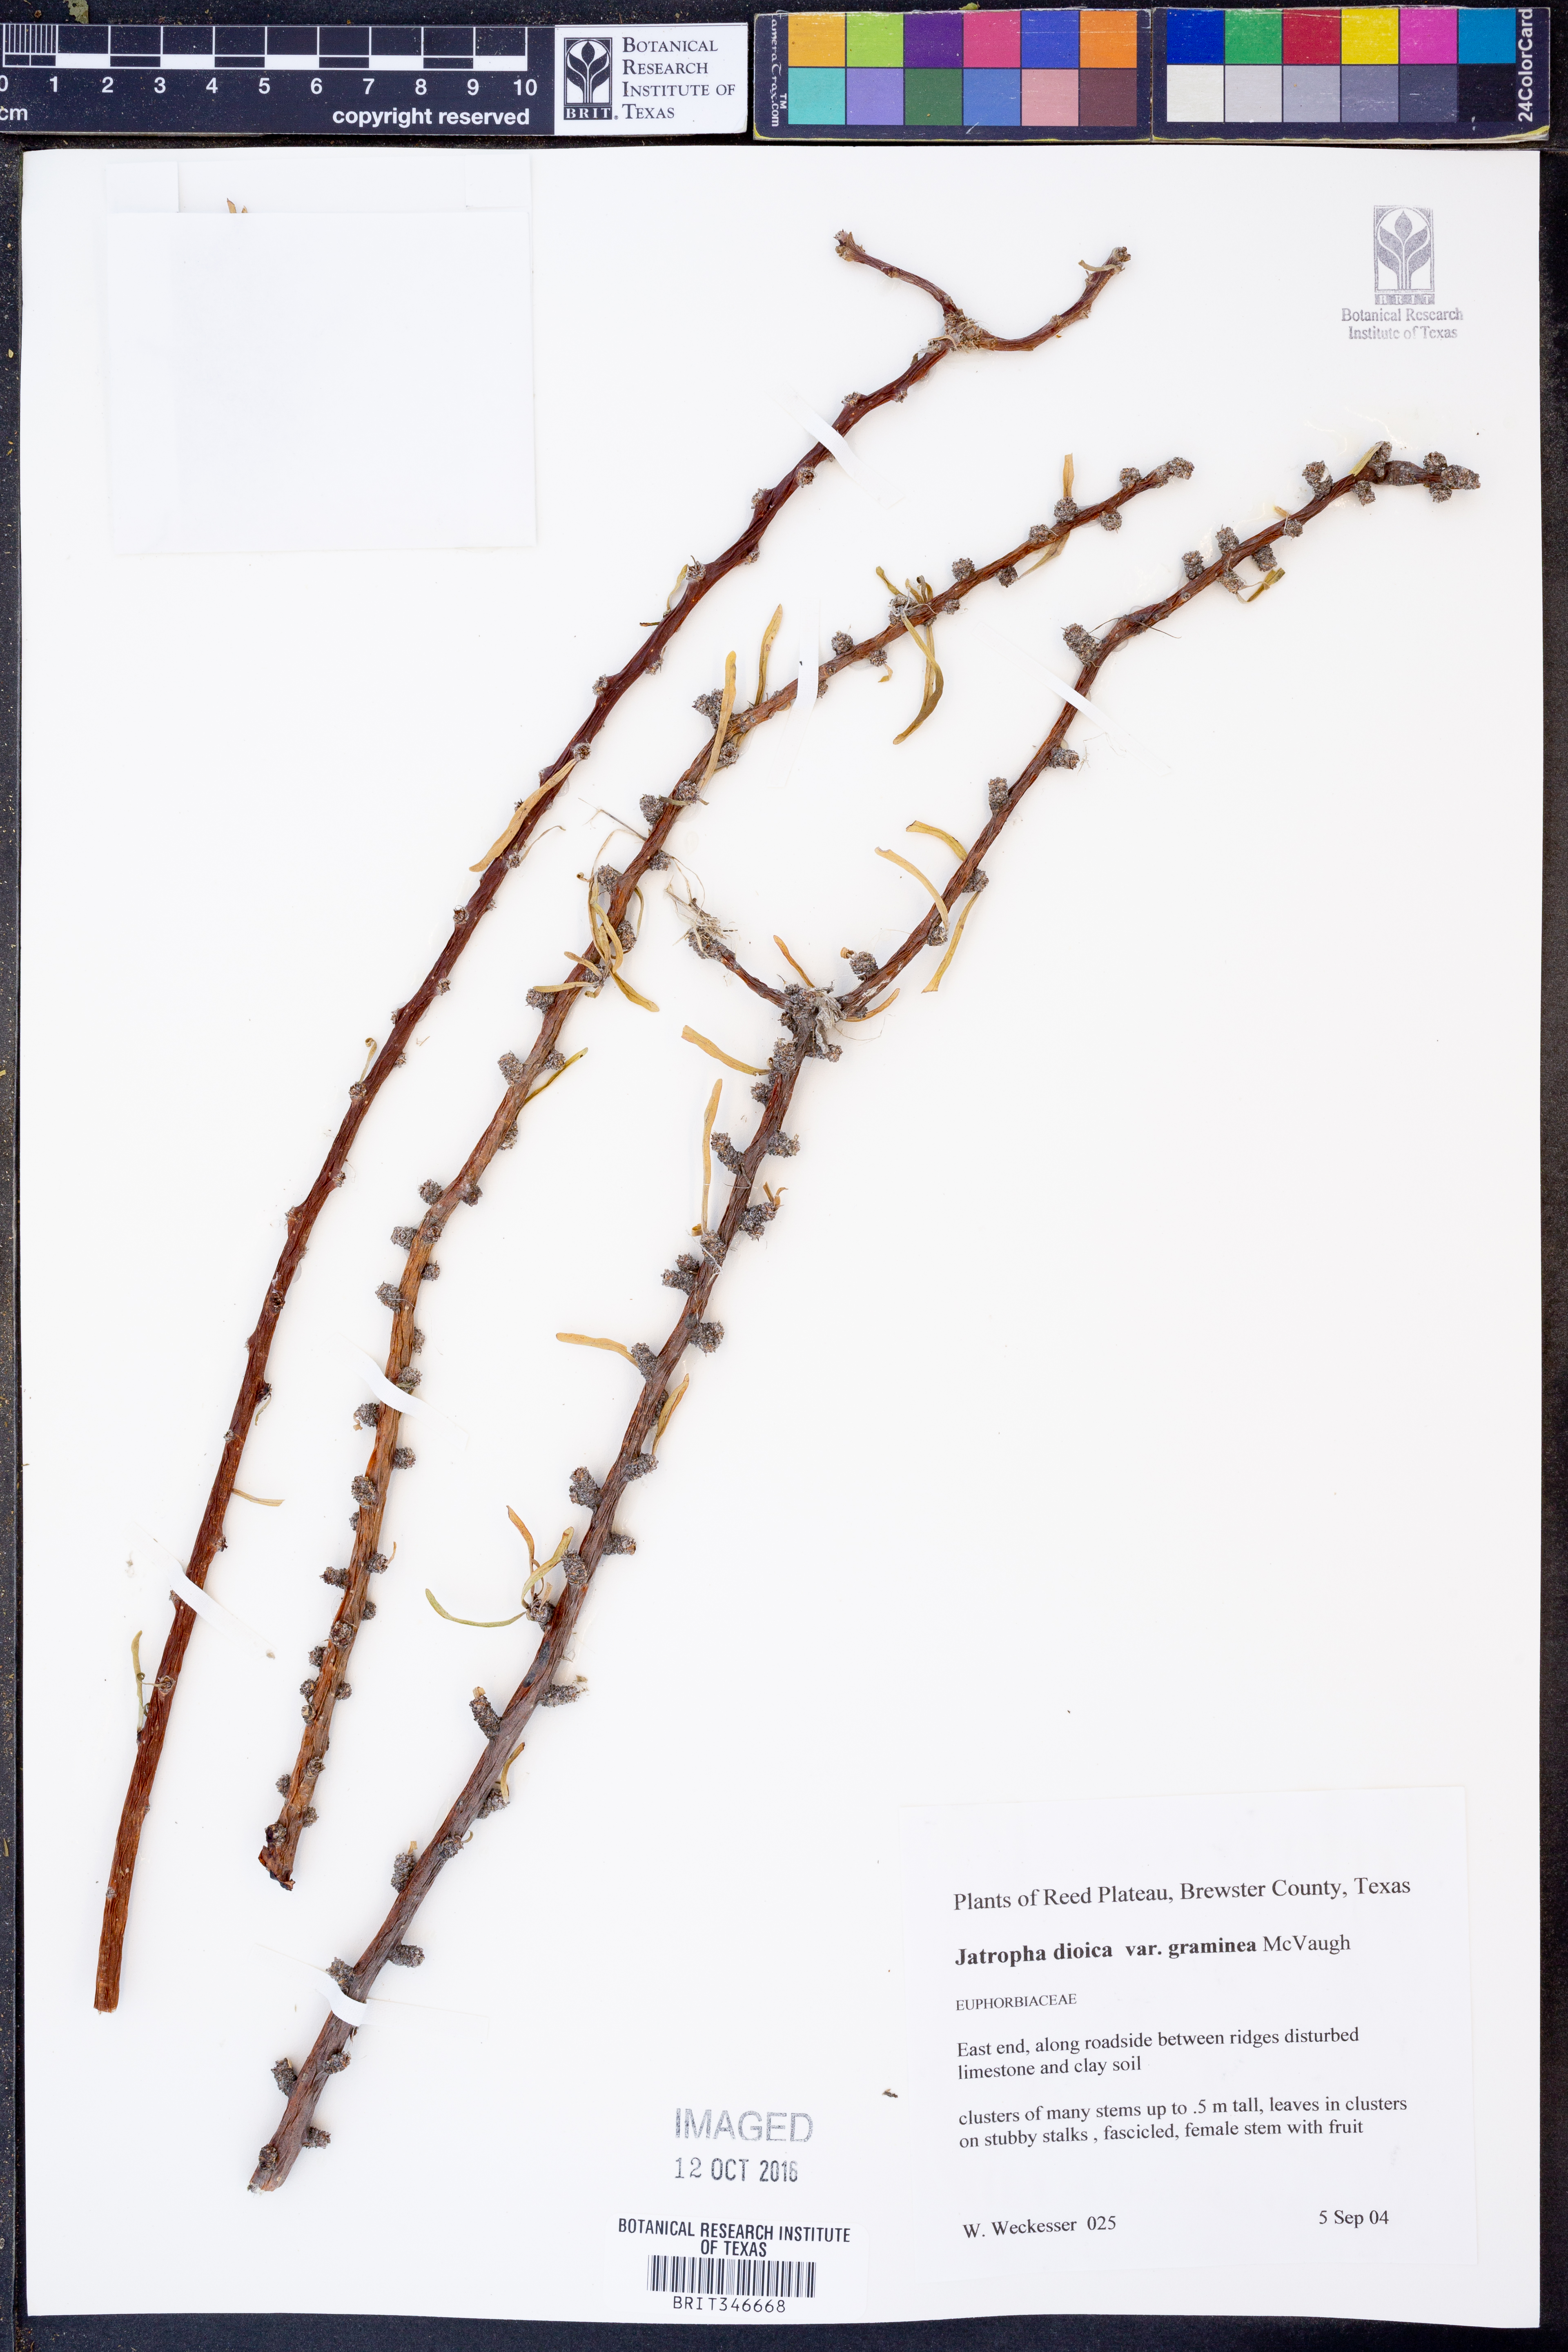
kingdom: Plantae
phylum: Tracheophyta
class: Magnoliopsida
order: Malpighiales
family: Euphorbiaceae
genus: Jatropha
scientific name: Jatropha dioica
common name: Leatherstem
